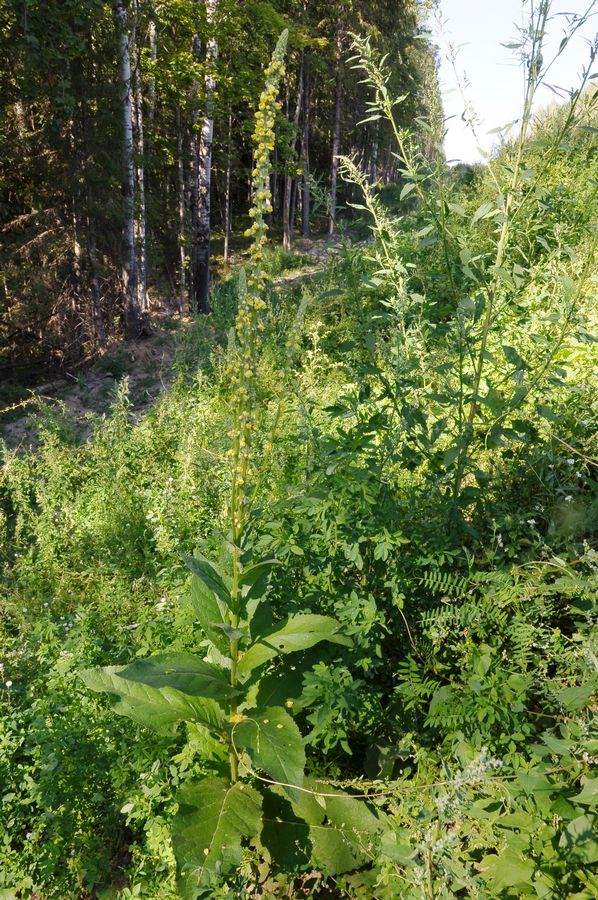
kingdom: Plantae
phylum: Tracheophyta
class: Magnoliopsida
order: Lamiales
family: Scrophulariaceae
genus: Verbascum
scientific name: Verbascum phlomoides
